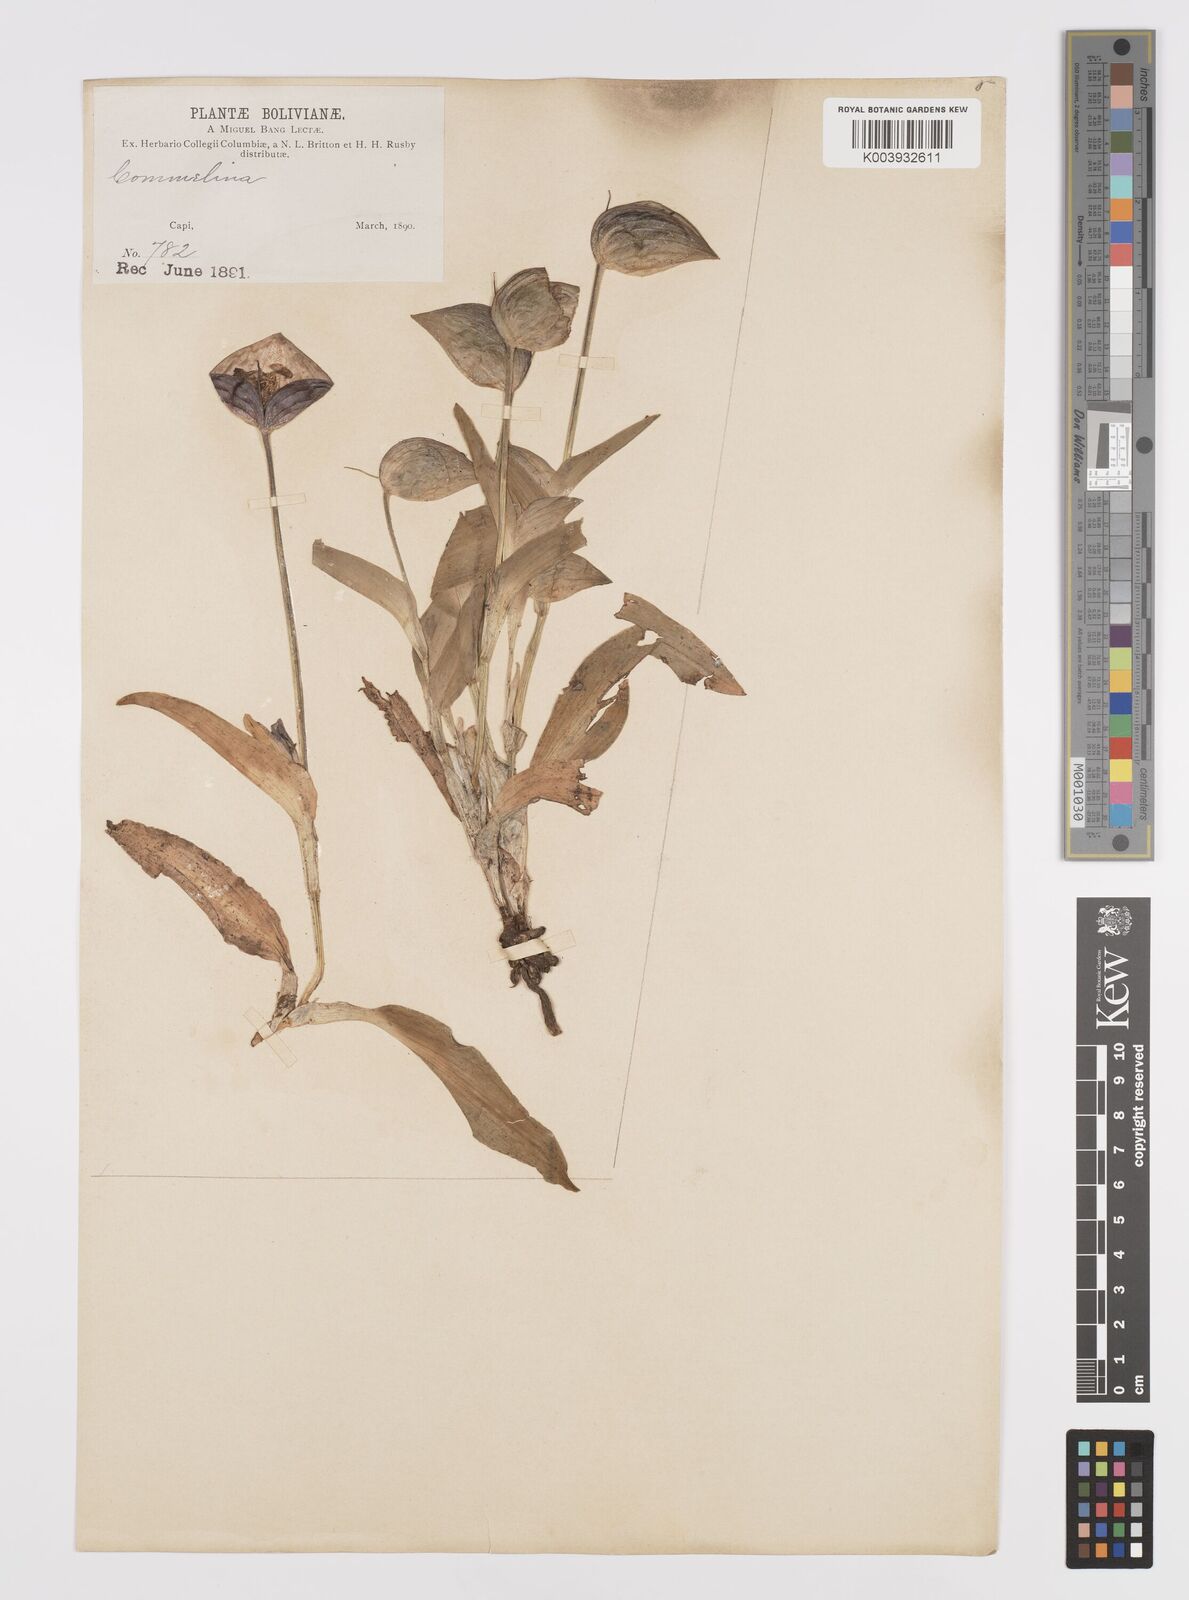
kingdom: Plantae
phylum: Tracheophyta
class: Liliopsida
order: Commelinales
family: Commelinaceae
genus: Commelina
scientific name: Commelina elliptica
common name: Peruvian spiderwort
